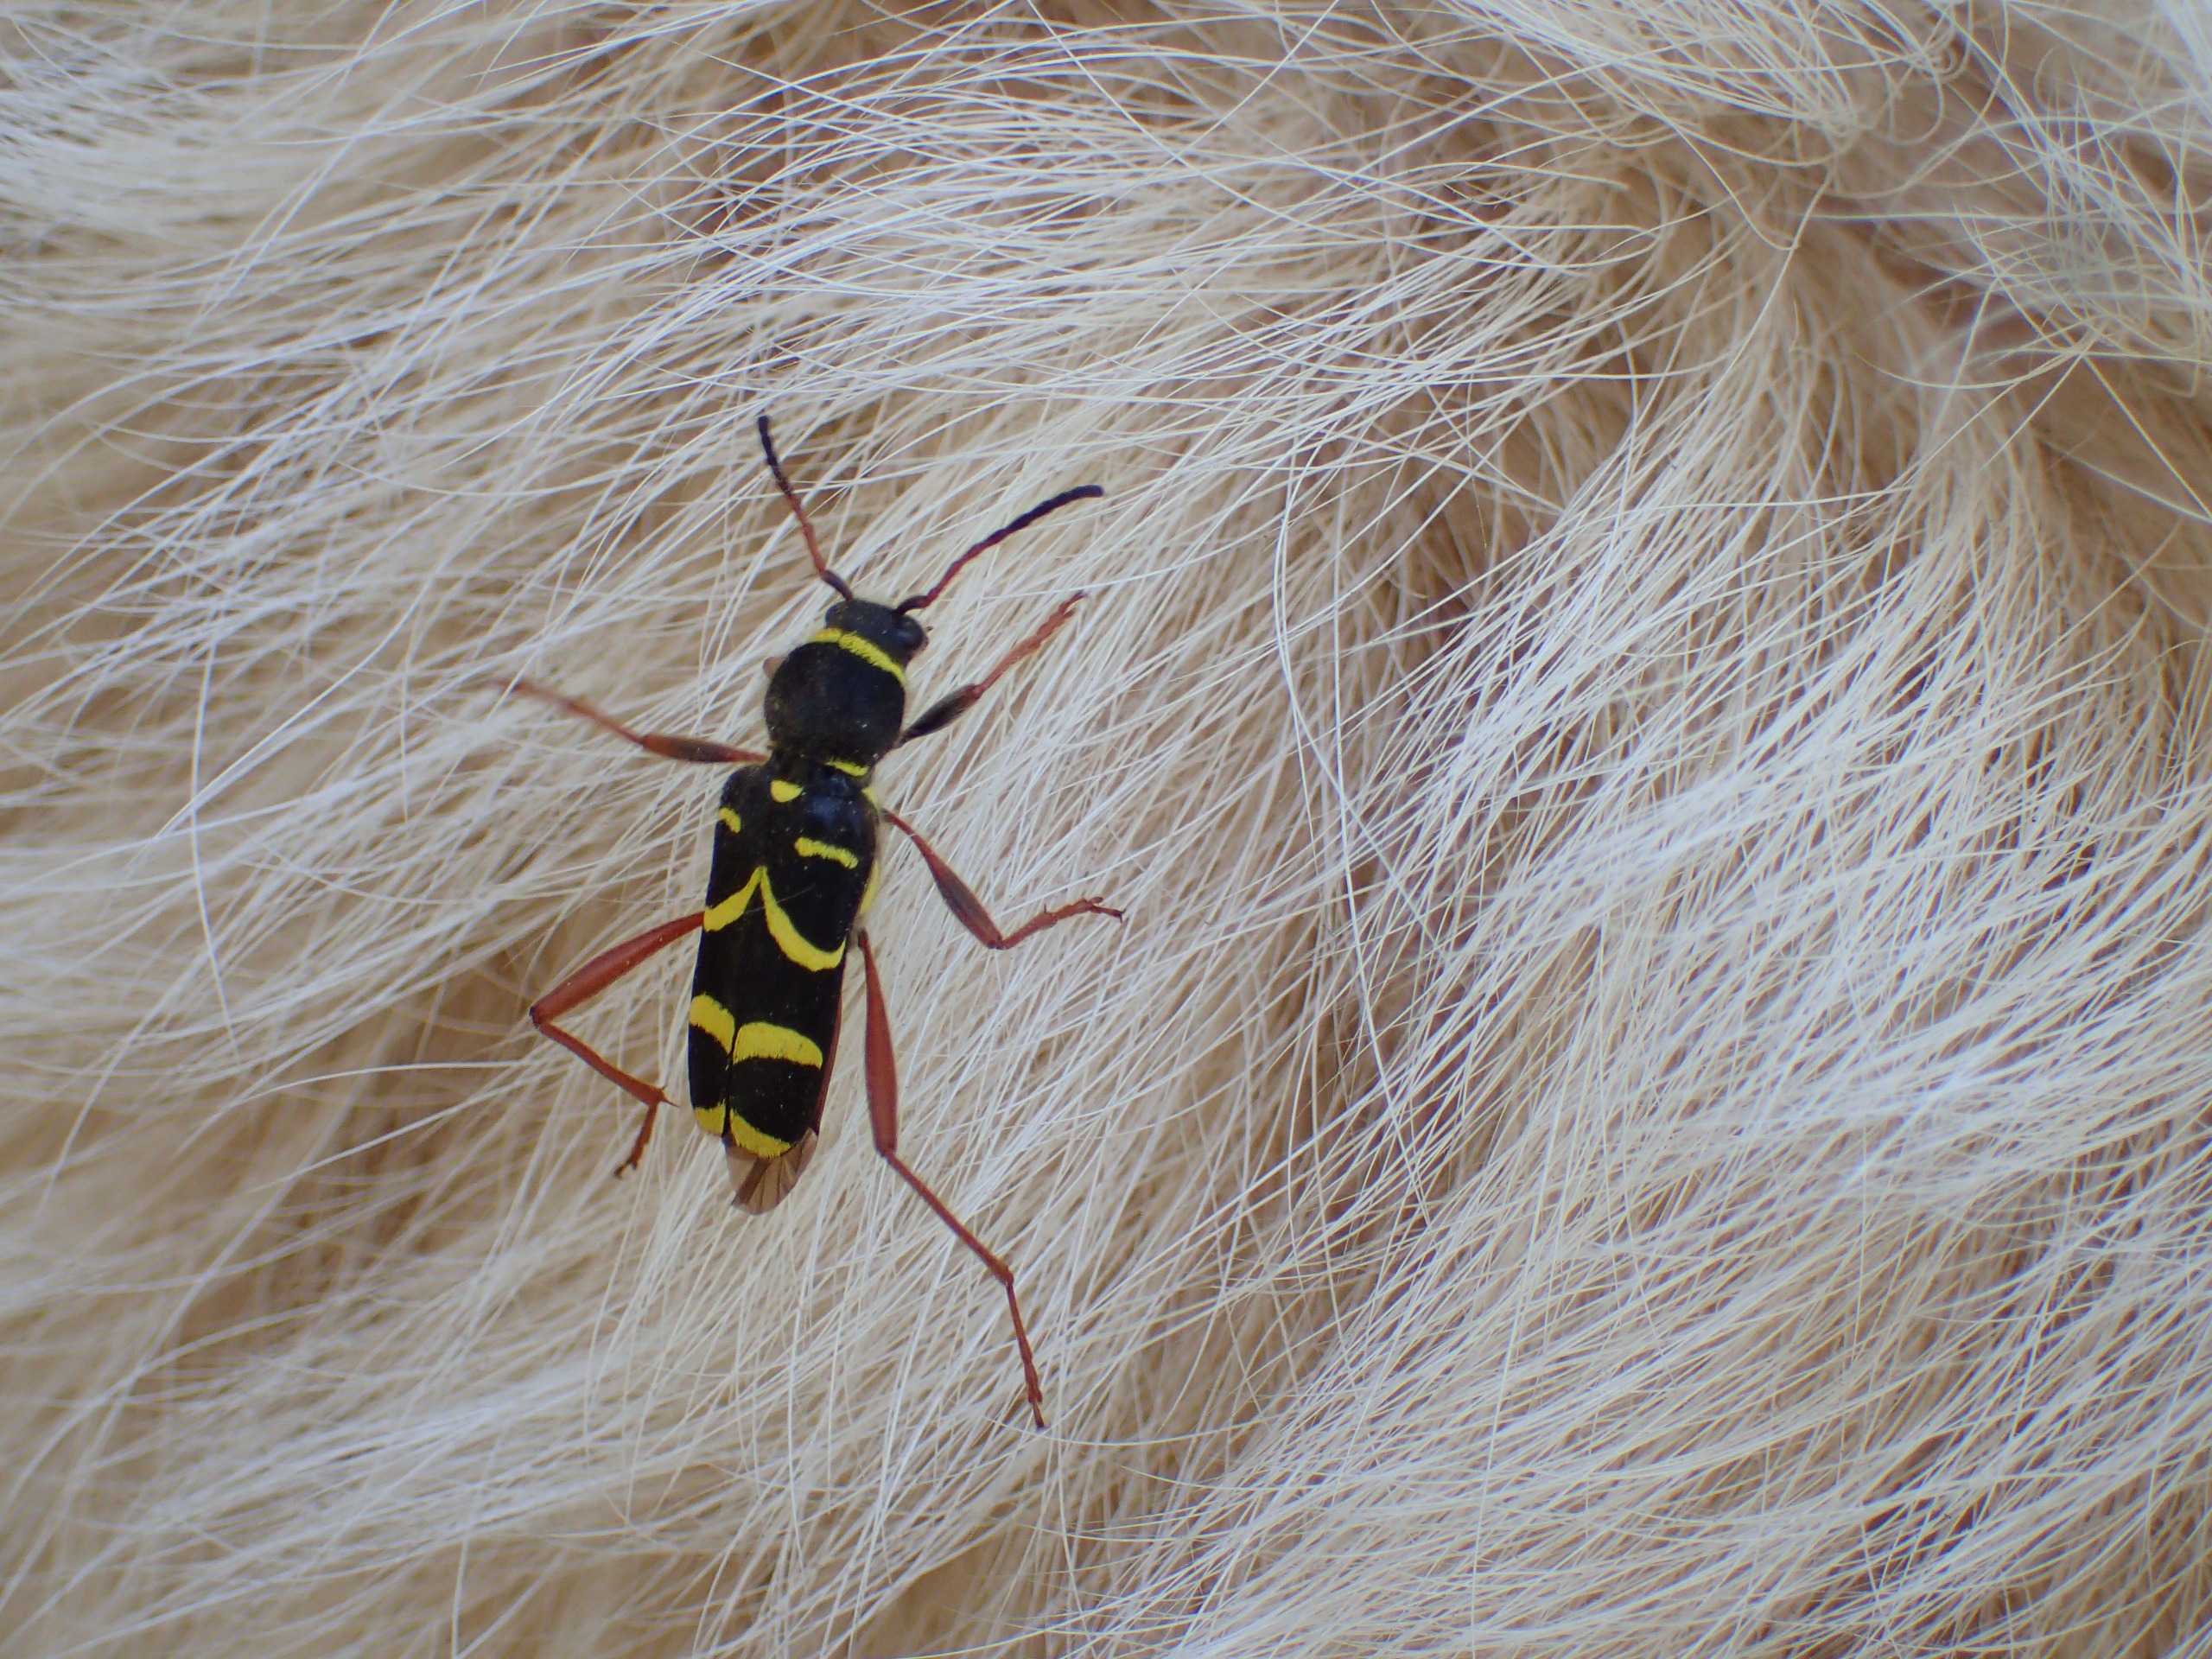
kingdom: Animalia
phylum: Arthropoda
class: Insecta
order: Coleoptera
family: Cerambycidae
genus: Clytus
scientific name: Clytus arietis
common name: Lille hvepsebuk
